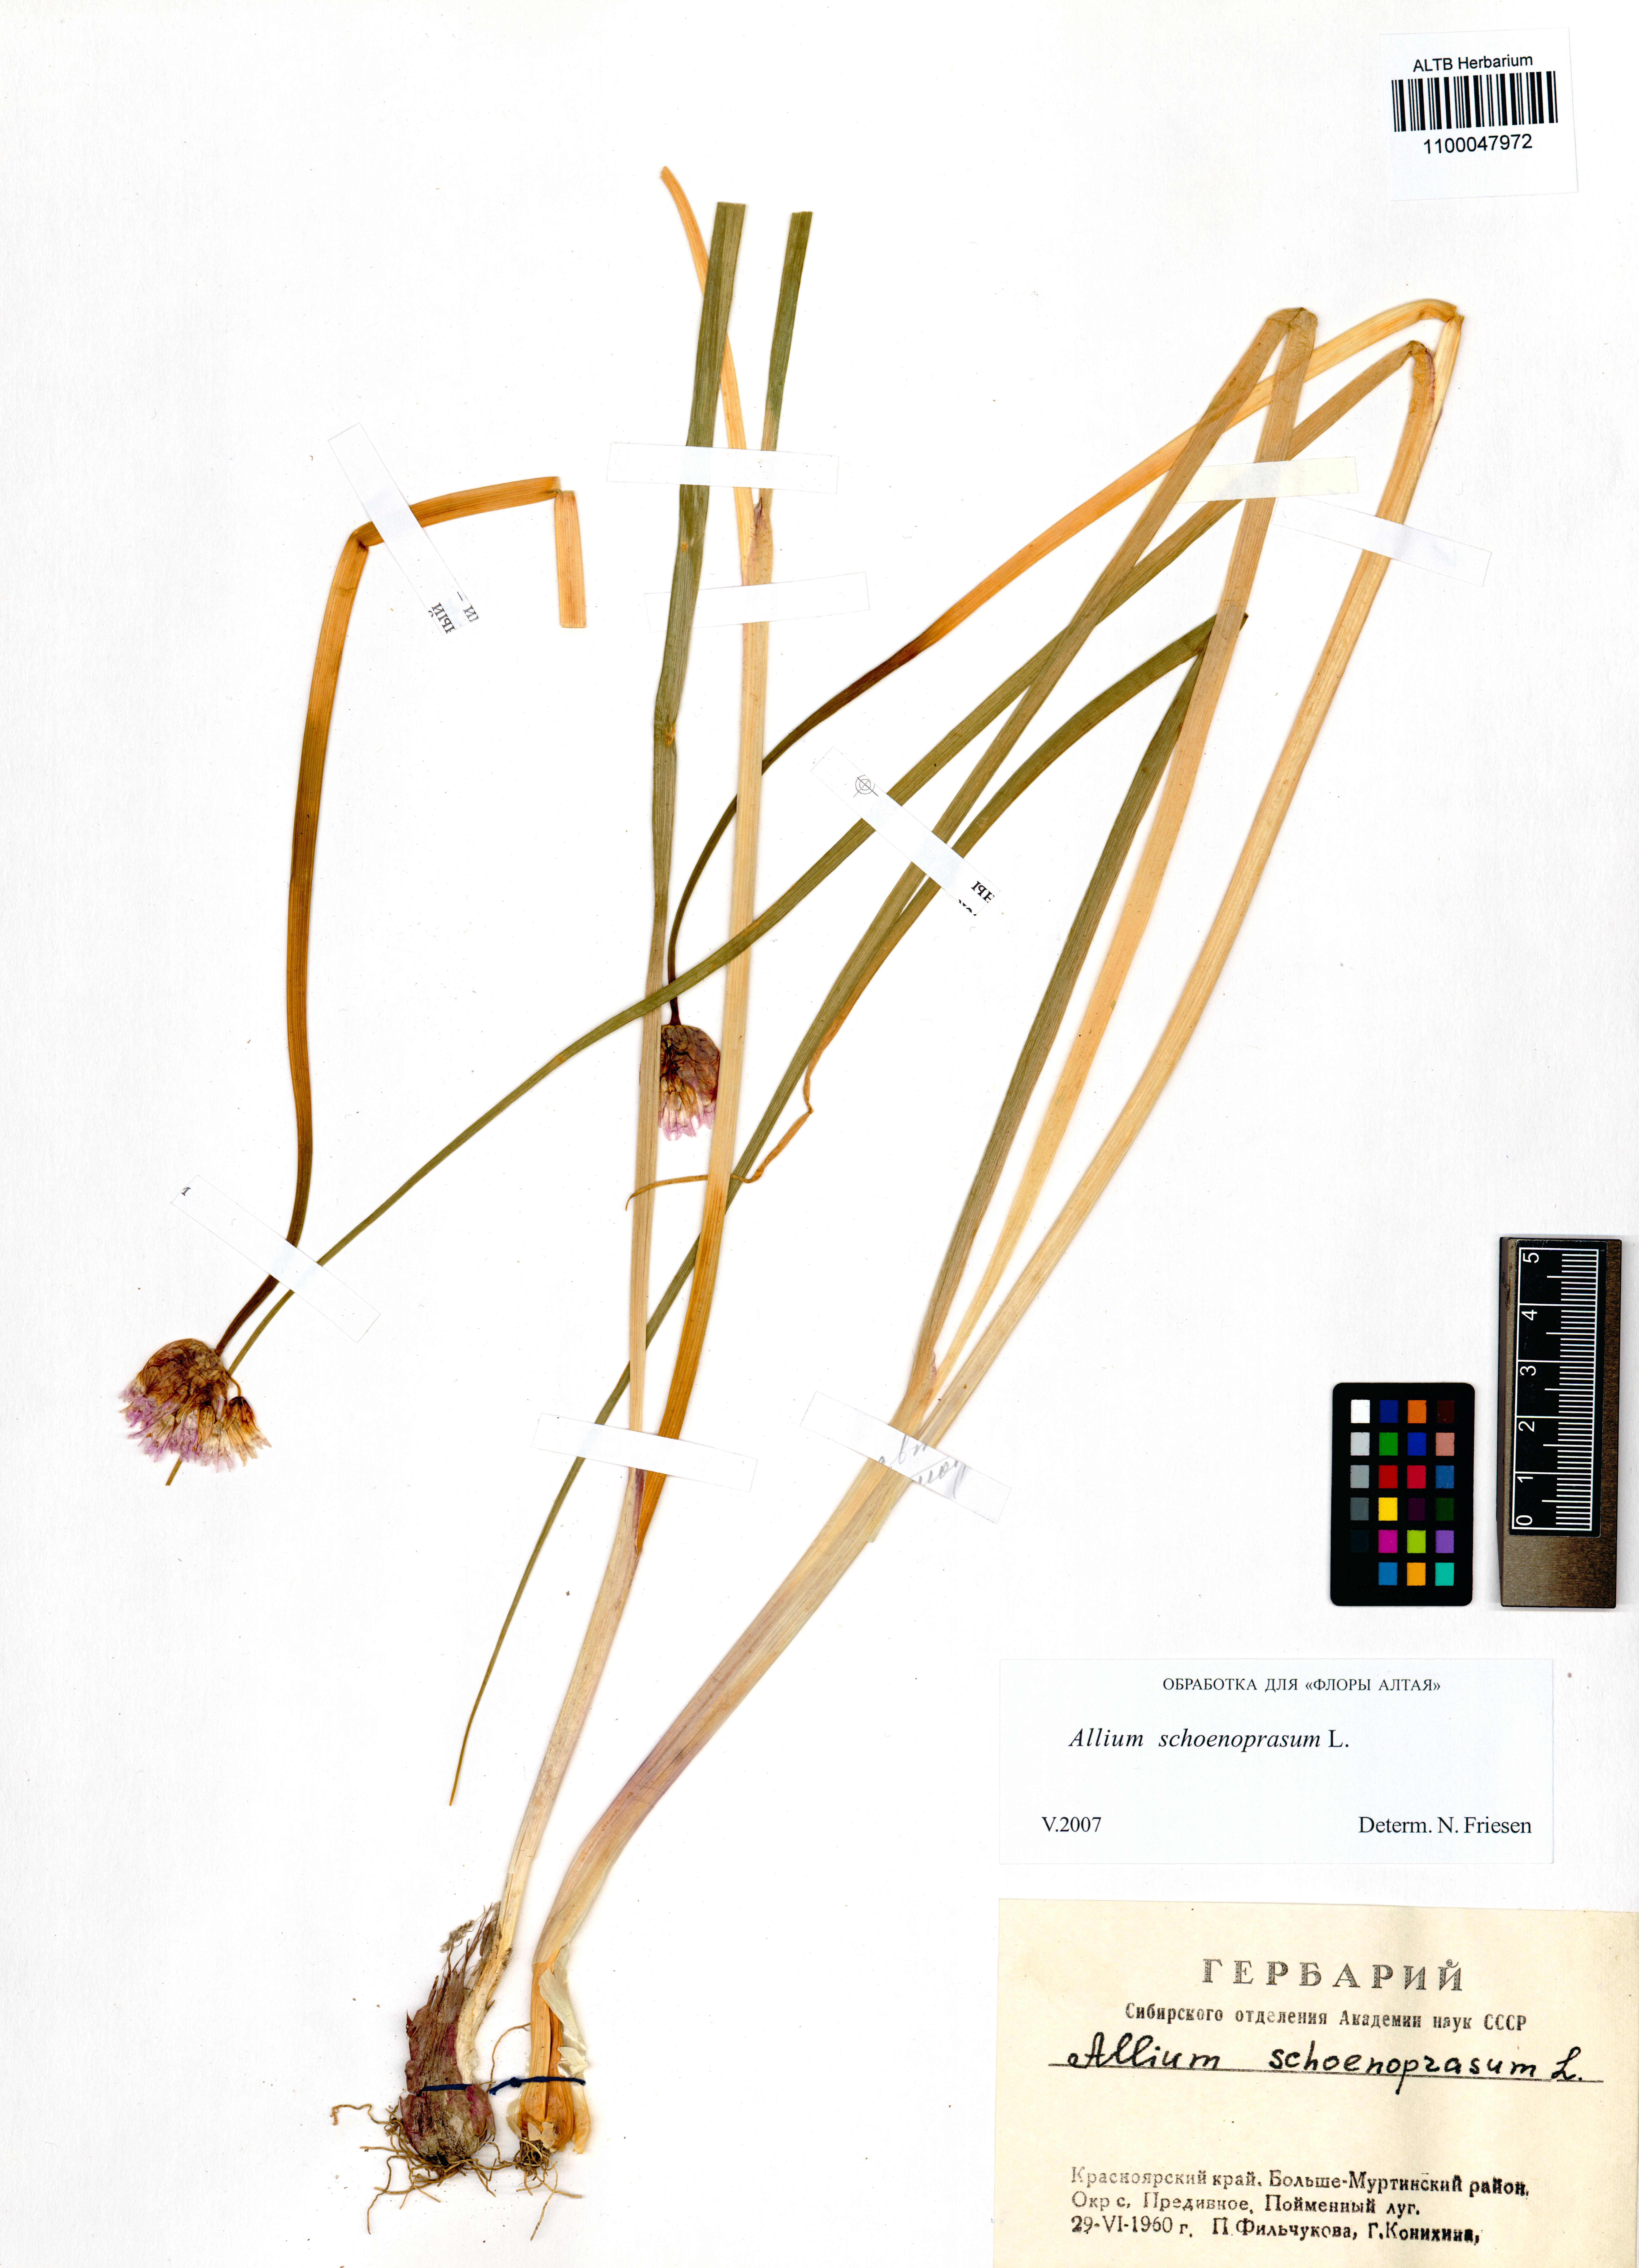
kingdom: Plantae
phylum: Tracheophyta
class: Liliopsida
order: Asparagales
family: Amaryllidaceae
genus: Allium
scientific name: Allium schoenoprasum
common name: Chives
